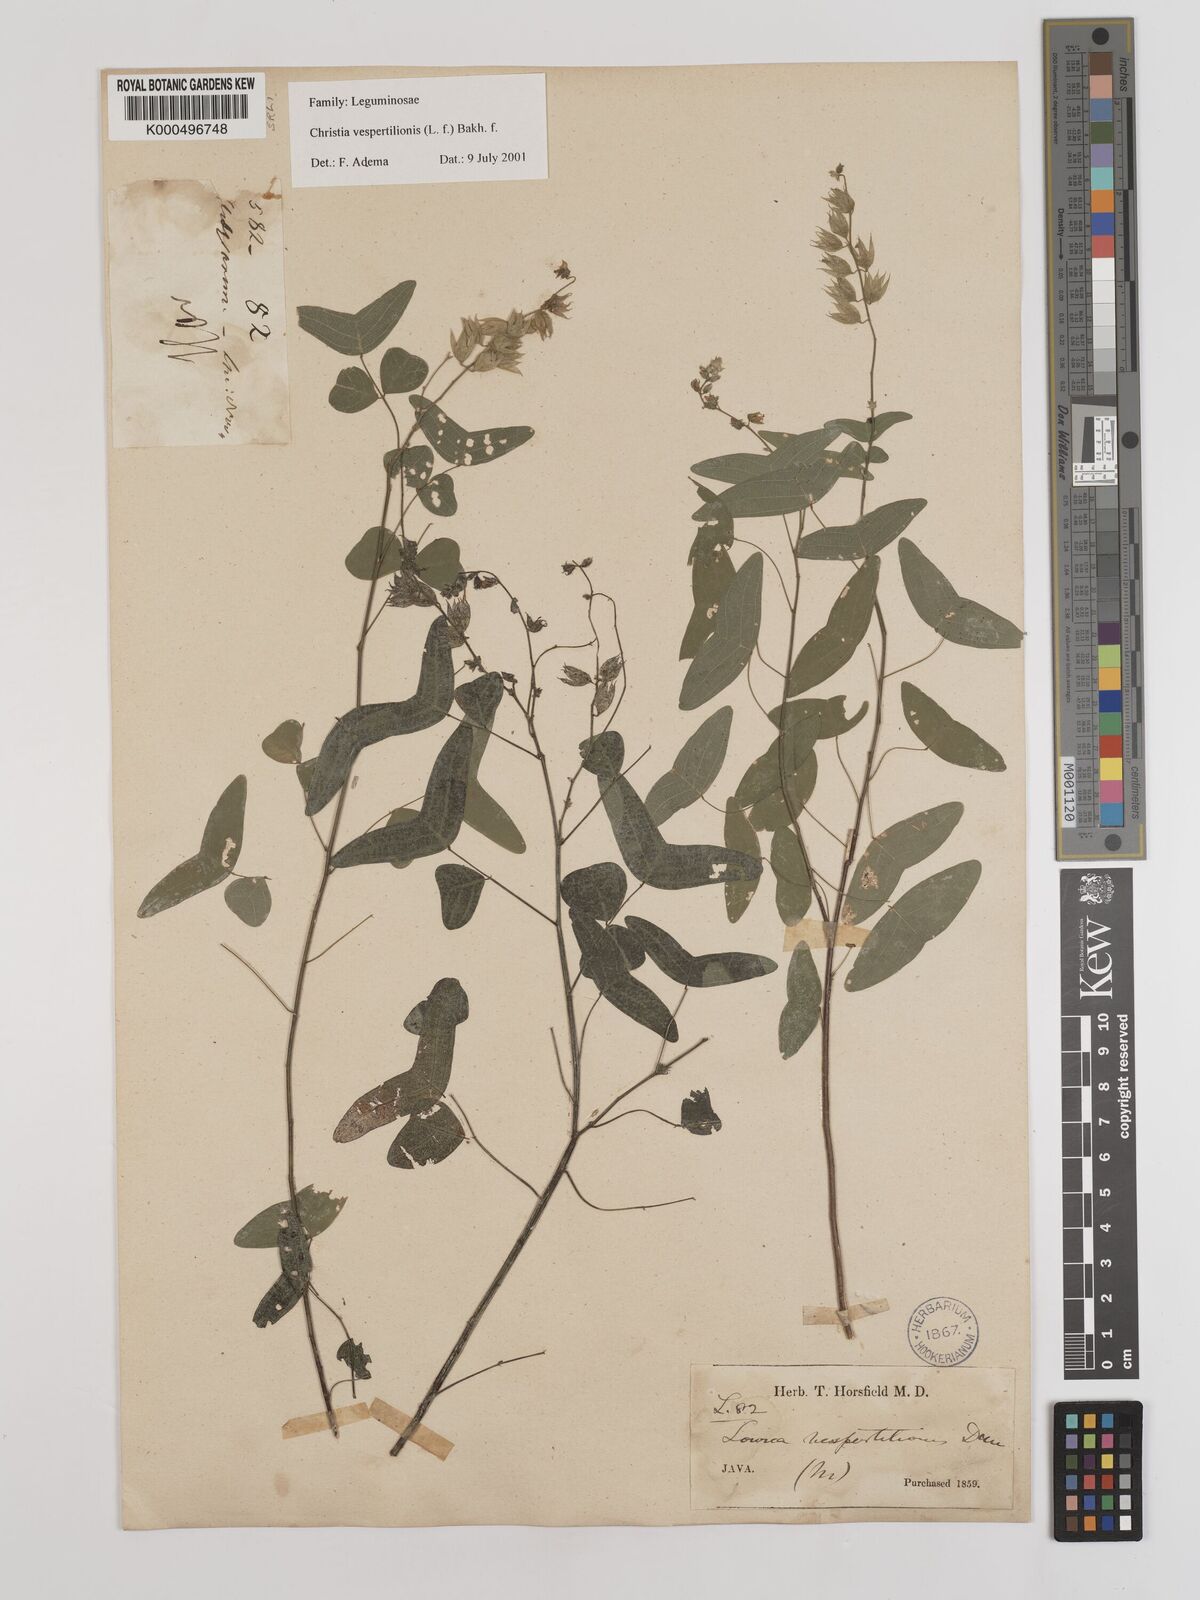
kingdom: Plantae
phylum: Tracheophyta
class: Magnoliopsida
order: Fabales
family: Fabaceae
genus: Christia
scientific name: Christia vespertilionis
